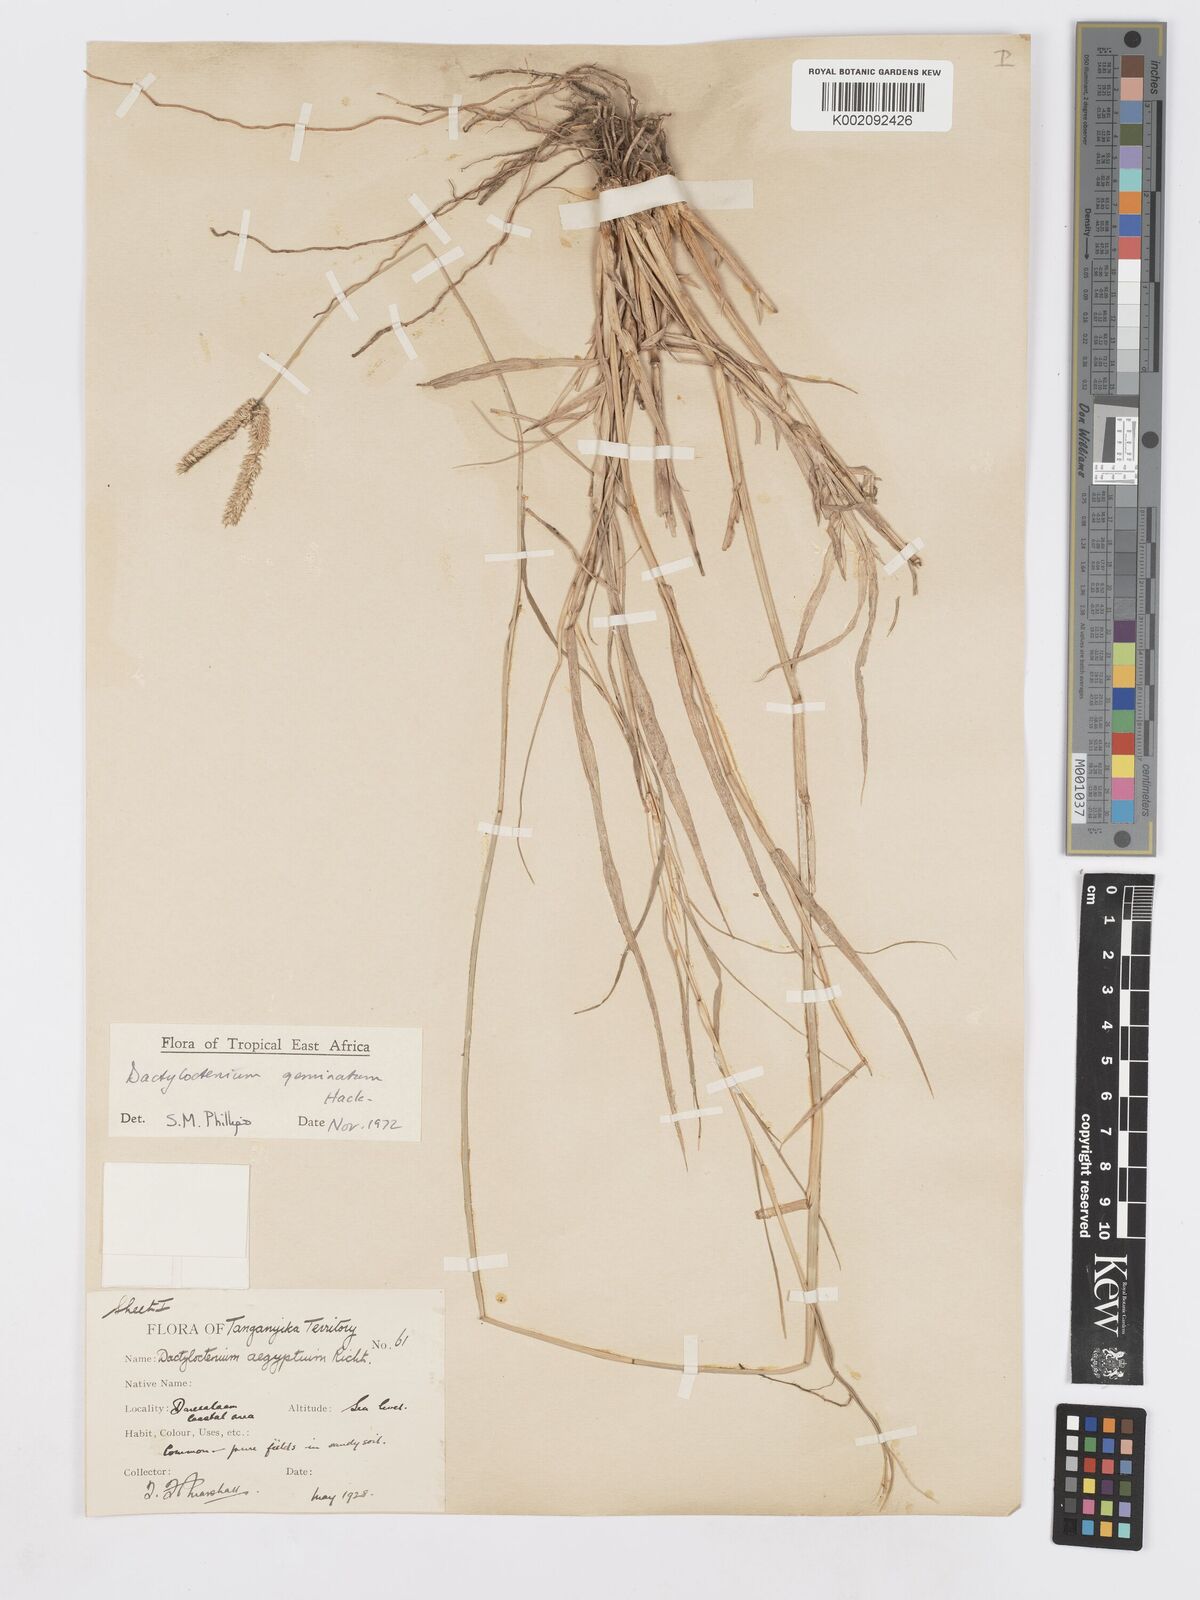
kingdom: Plantae
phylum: Tracheophyta
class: Liliopsida
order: Poales
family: Poaceae
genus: Dactyloctenium
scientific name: Dactyloctenium geminatum
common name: Crowsfoot grass
